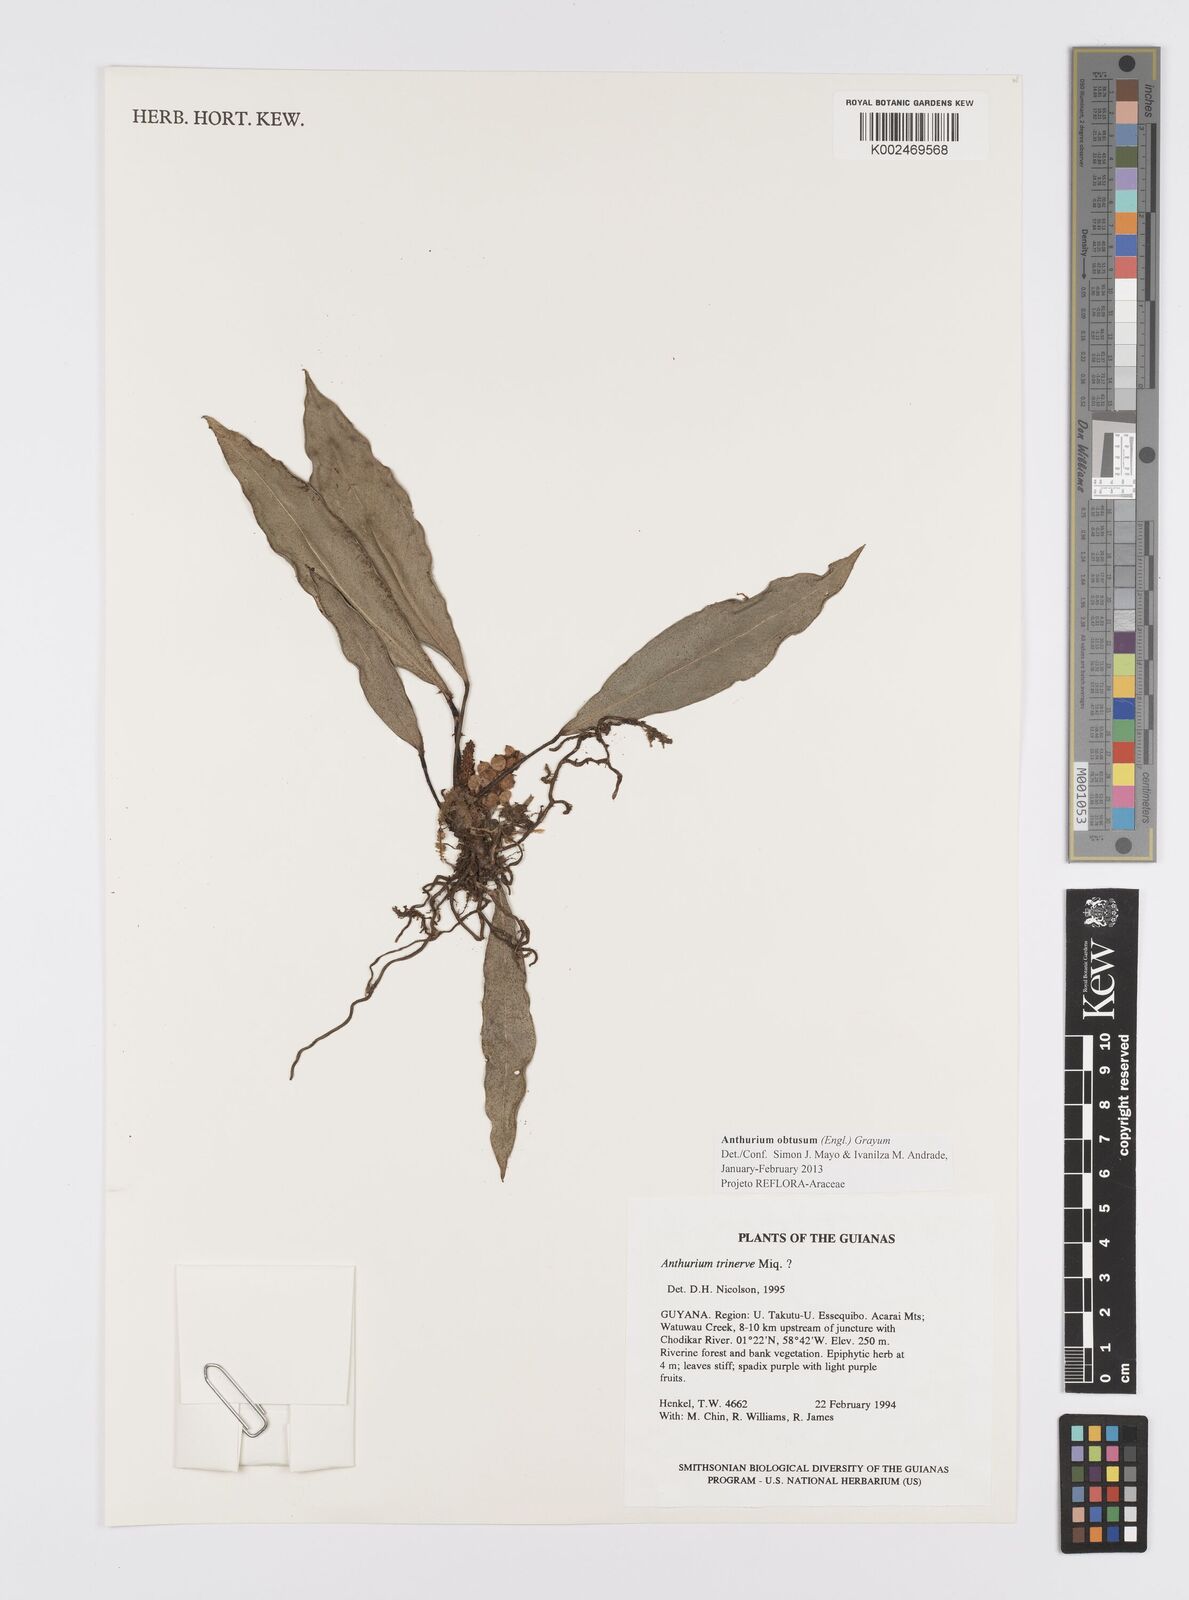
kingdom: Plantae
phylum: Tracheophyta
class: Liliopsida
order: Alismatales
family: Araceae
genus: Anthurium
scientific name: Anthurium obtusum
